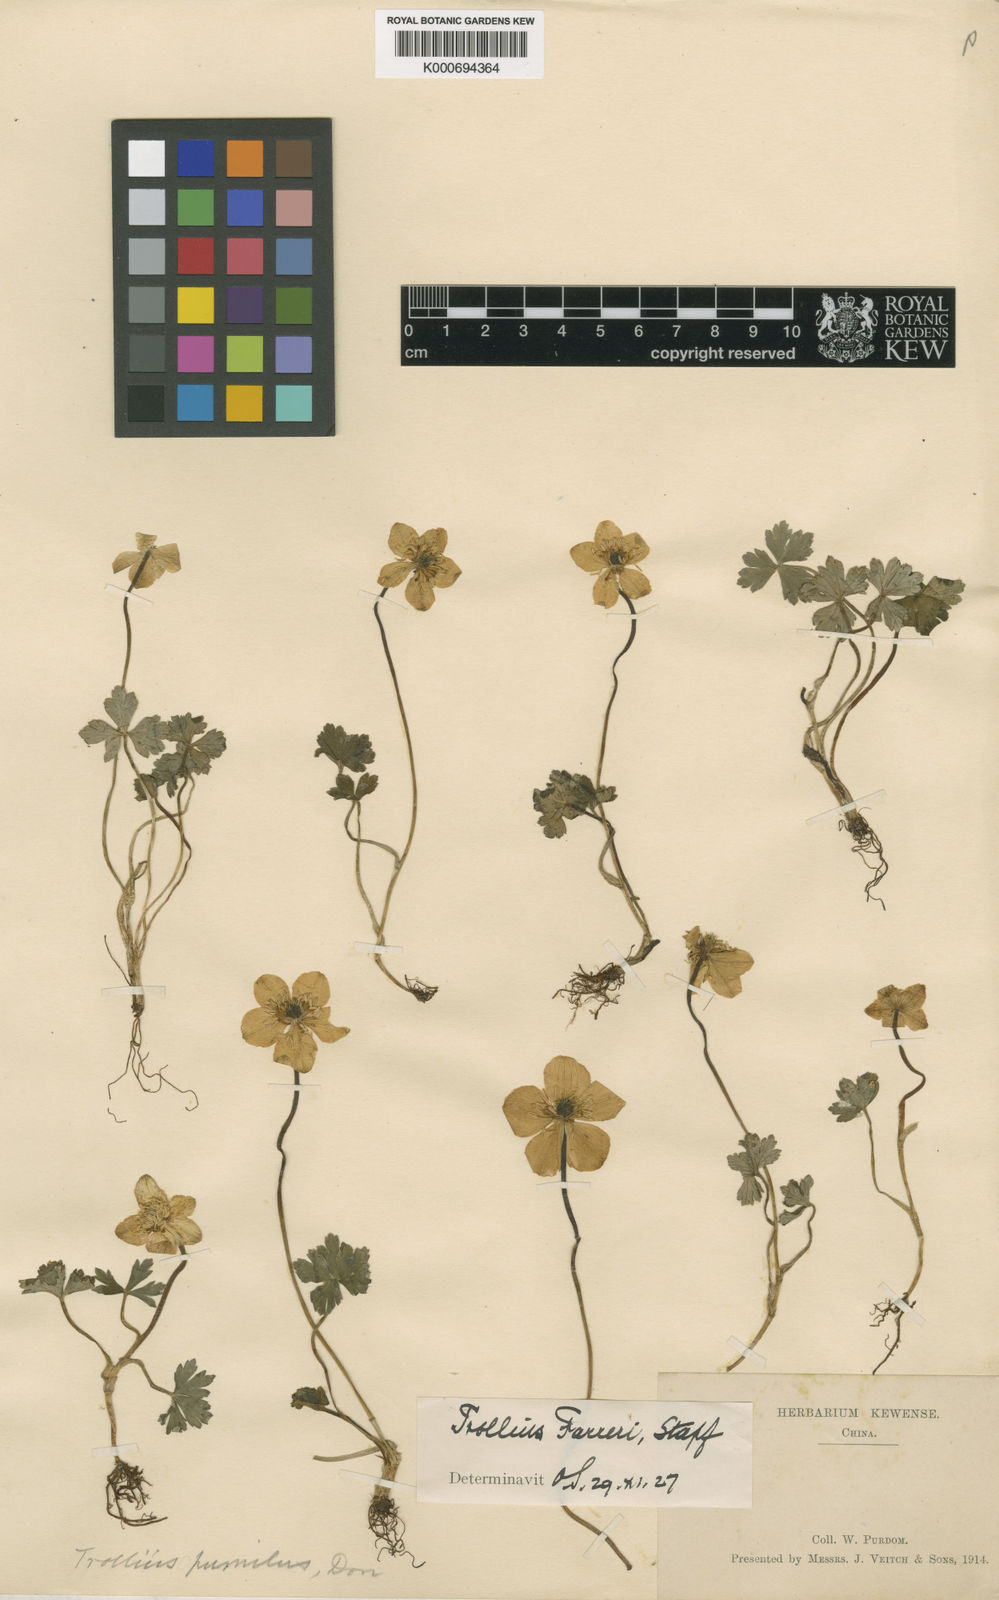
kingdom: Plantae
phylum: Tracheophyta
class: Magnoliopsida
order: Ranunculales
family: Ranunculaceae
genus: Trollius
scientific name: Trollius farreri
